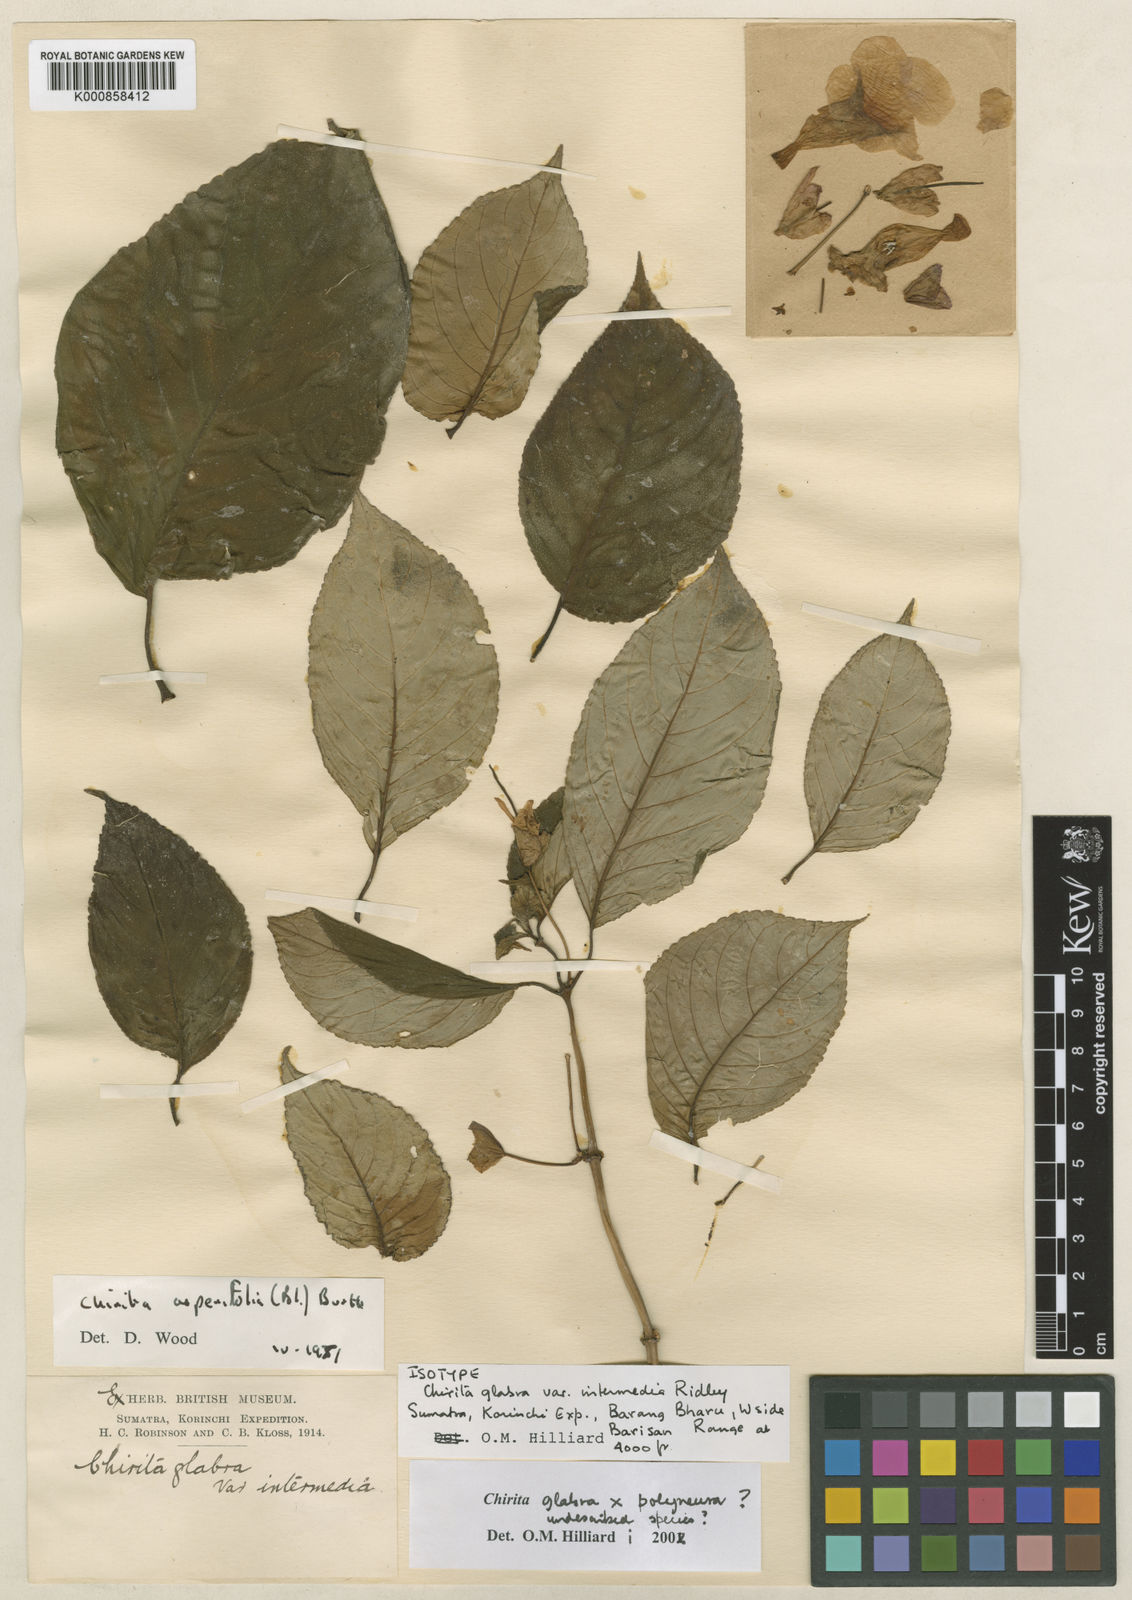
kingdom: Plantae
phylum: Tracheophyta
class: Magnoliopsida
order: Lamiales
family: Gesneriaceae
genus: Liebigia
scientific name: Liebigia glabra
